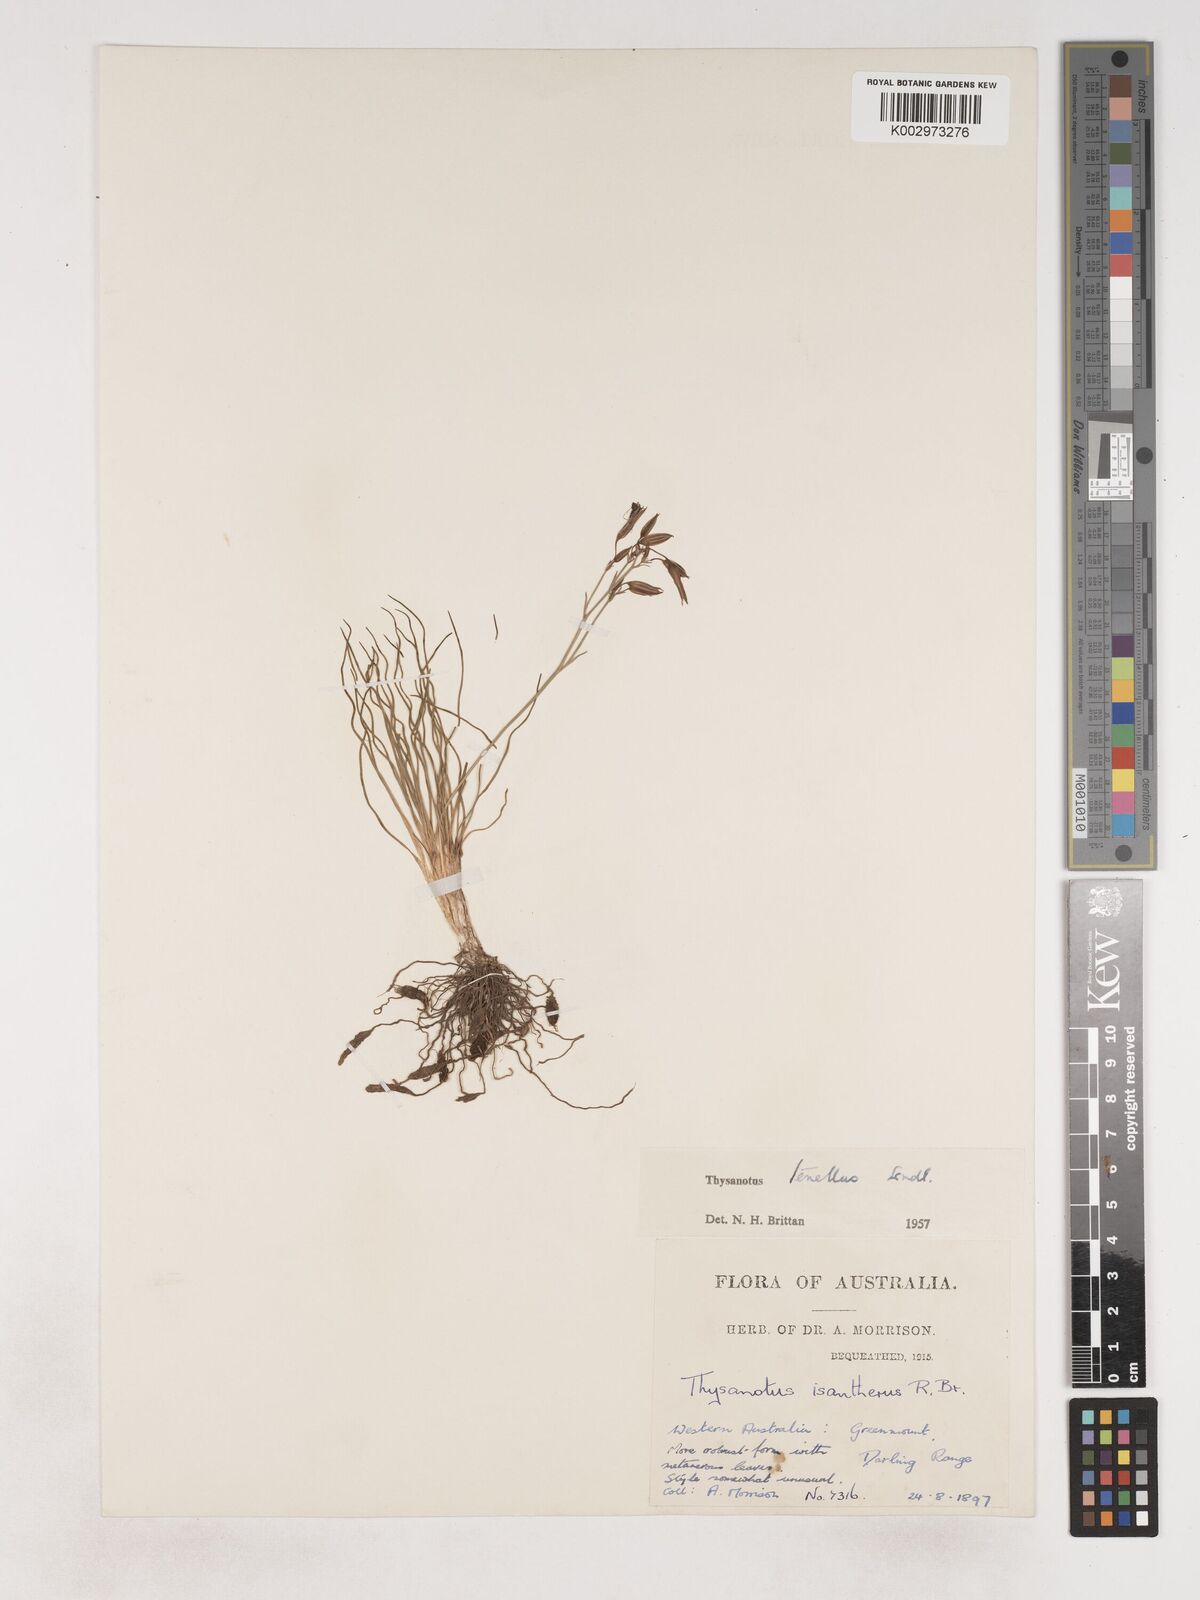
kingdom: Plantae
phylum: Tracheophyta
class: Liliopsida
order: Asparagales
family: Asparagaceae
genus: Thysanotus
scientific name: Thysanotus tenellus
